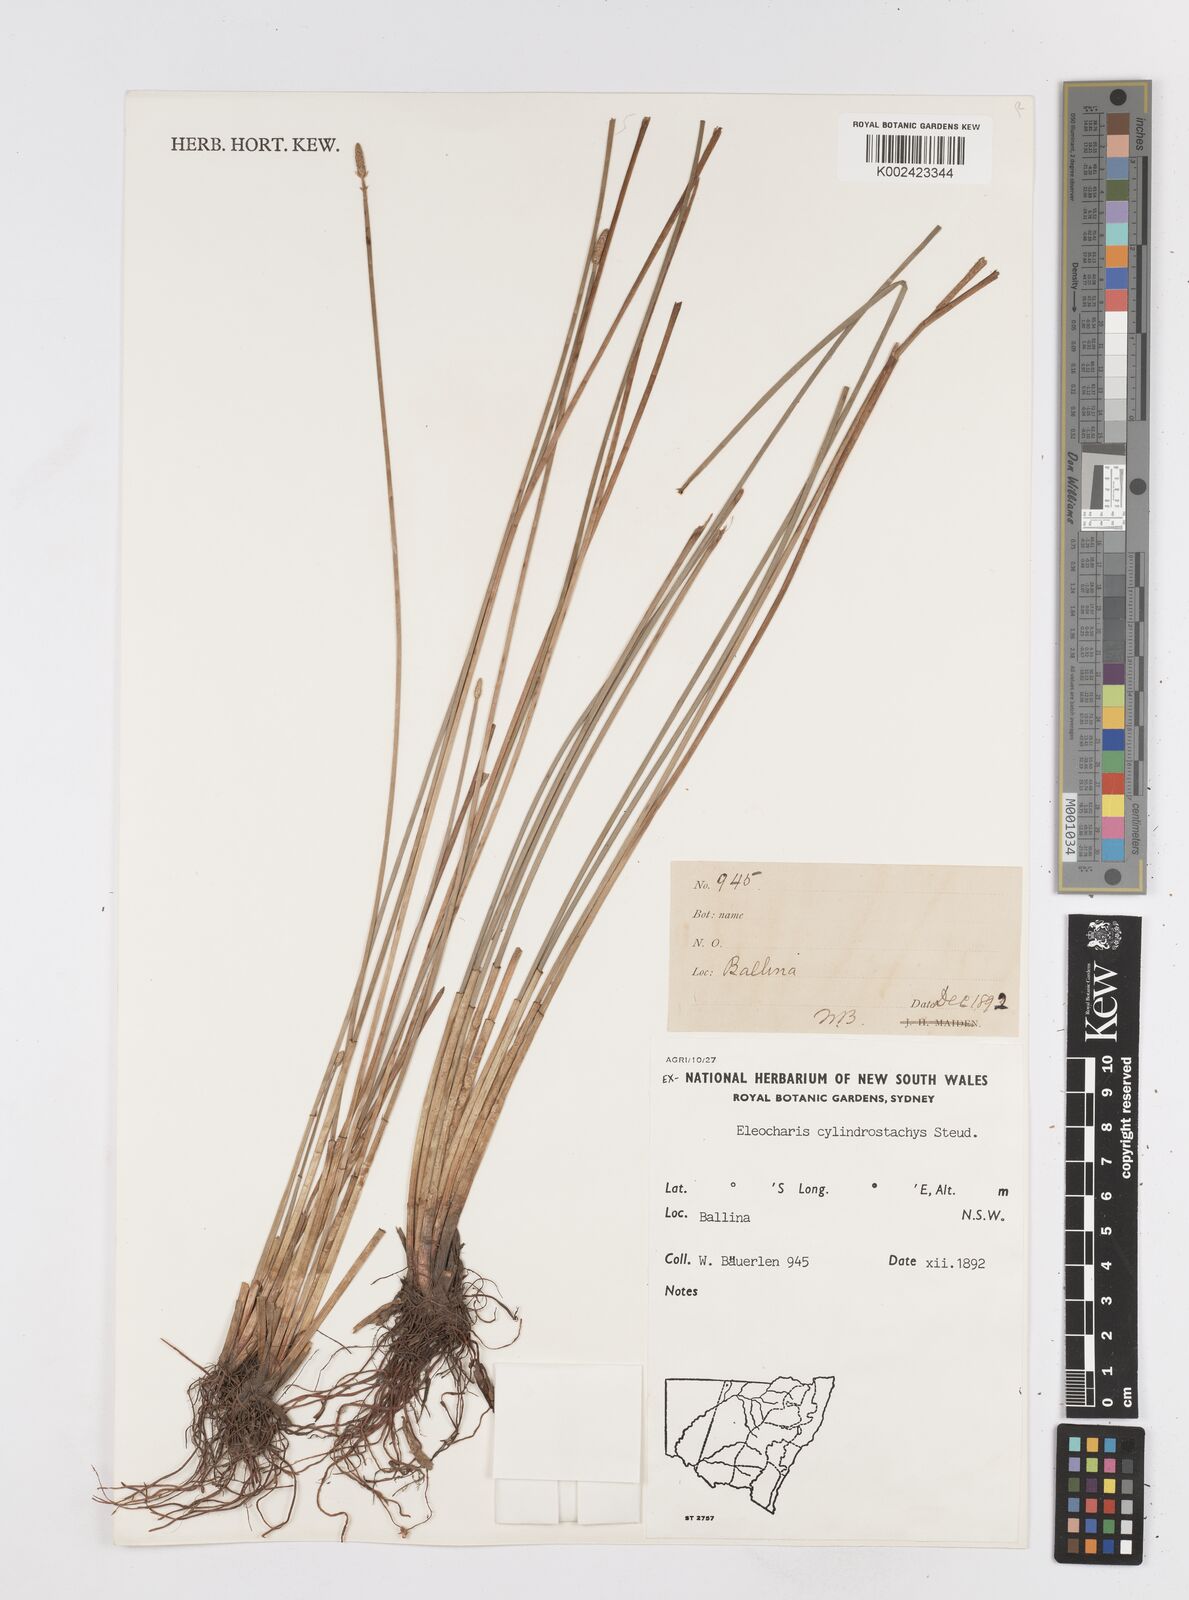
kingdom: Plantae
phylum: Tracheophyta
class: Liliopsida
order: Poales
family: Cyperaceae
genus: Eleocharis
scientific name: Eleocharis cylindrostachys
